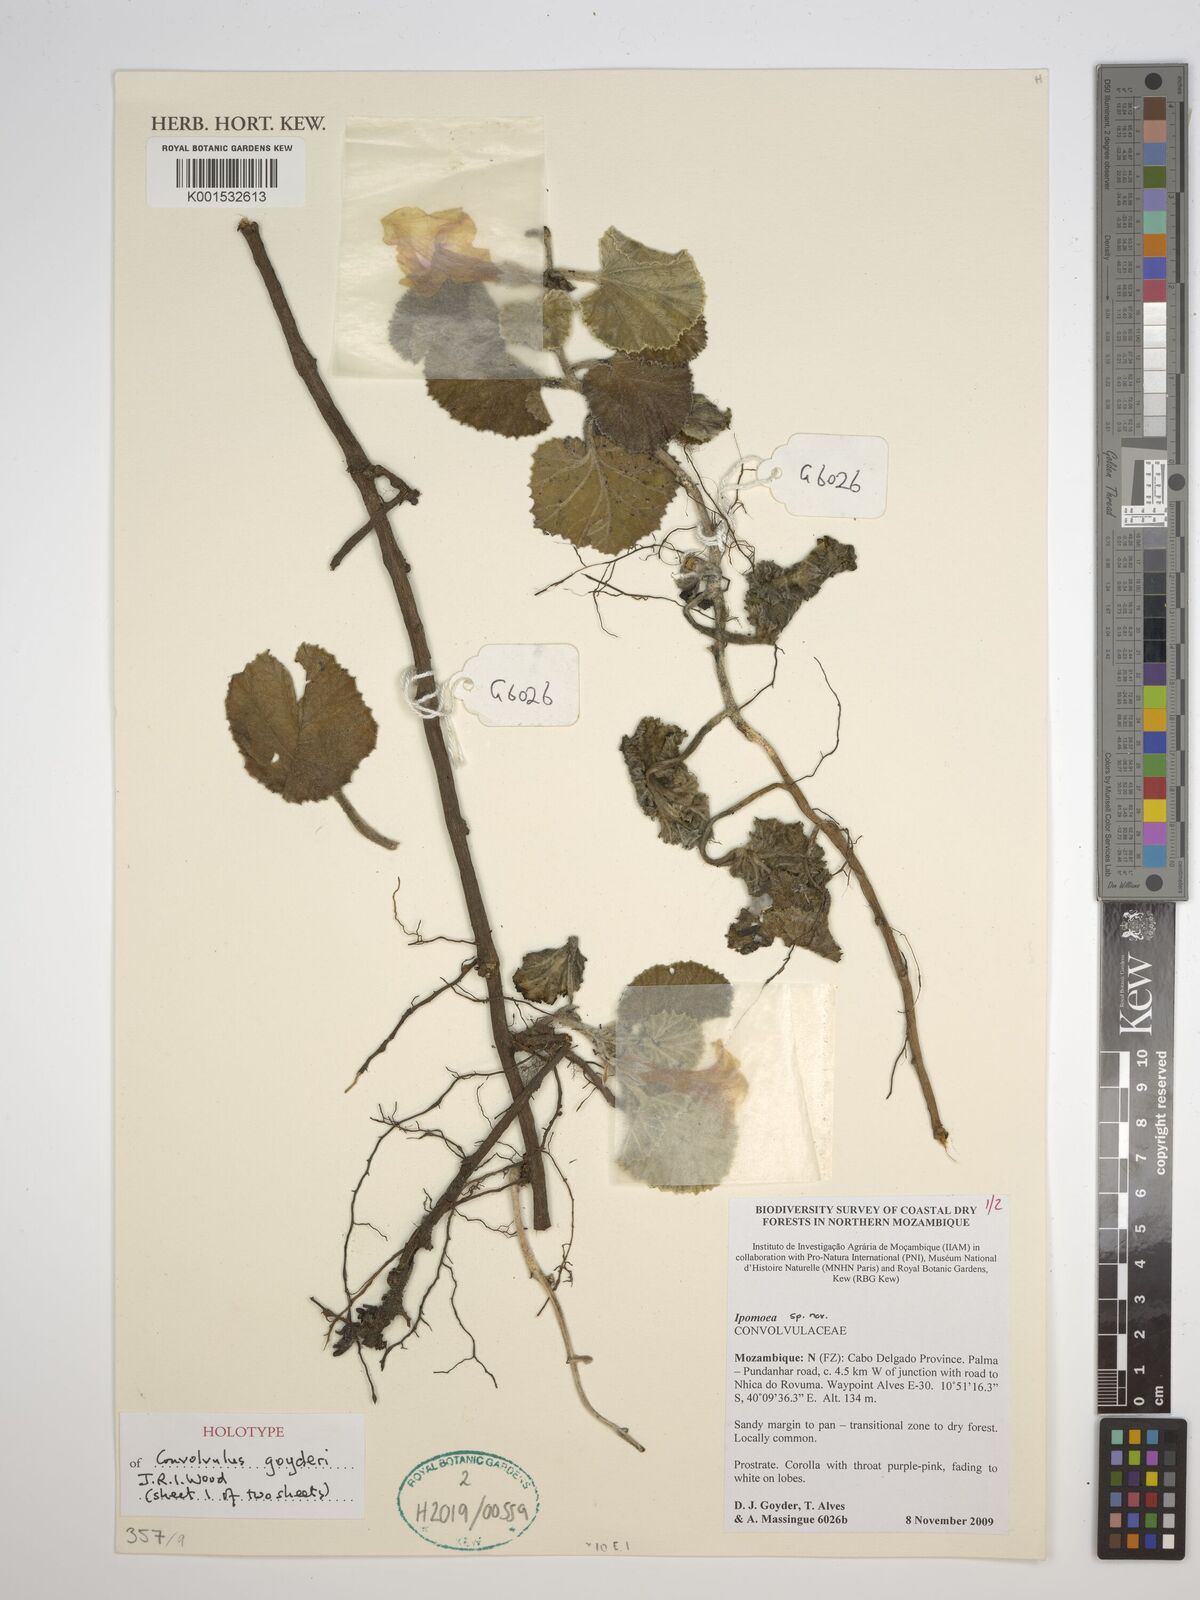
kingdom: Plantae
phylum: Tracheophyta
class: Magnoliopsida
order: Solanales
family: Convolvulaceae
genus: Convolvulus
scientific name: Convolvulus
